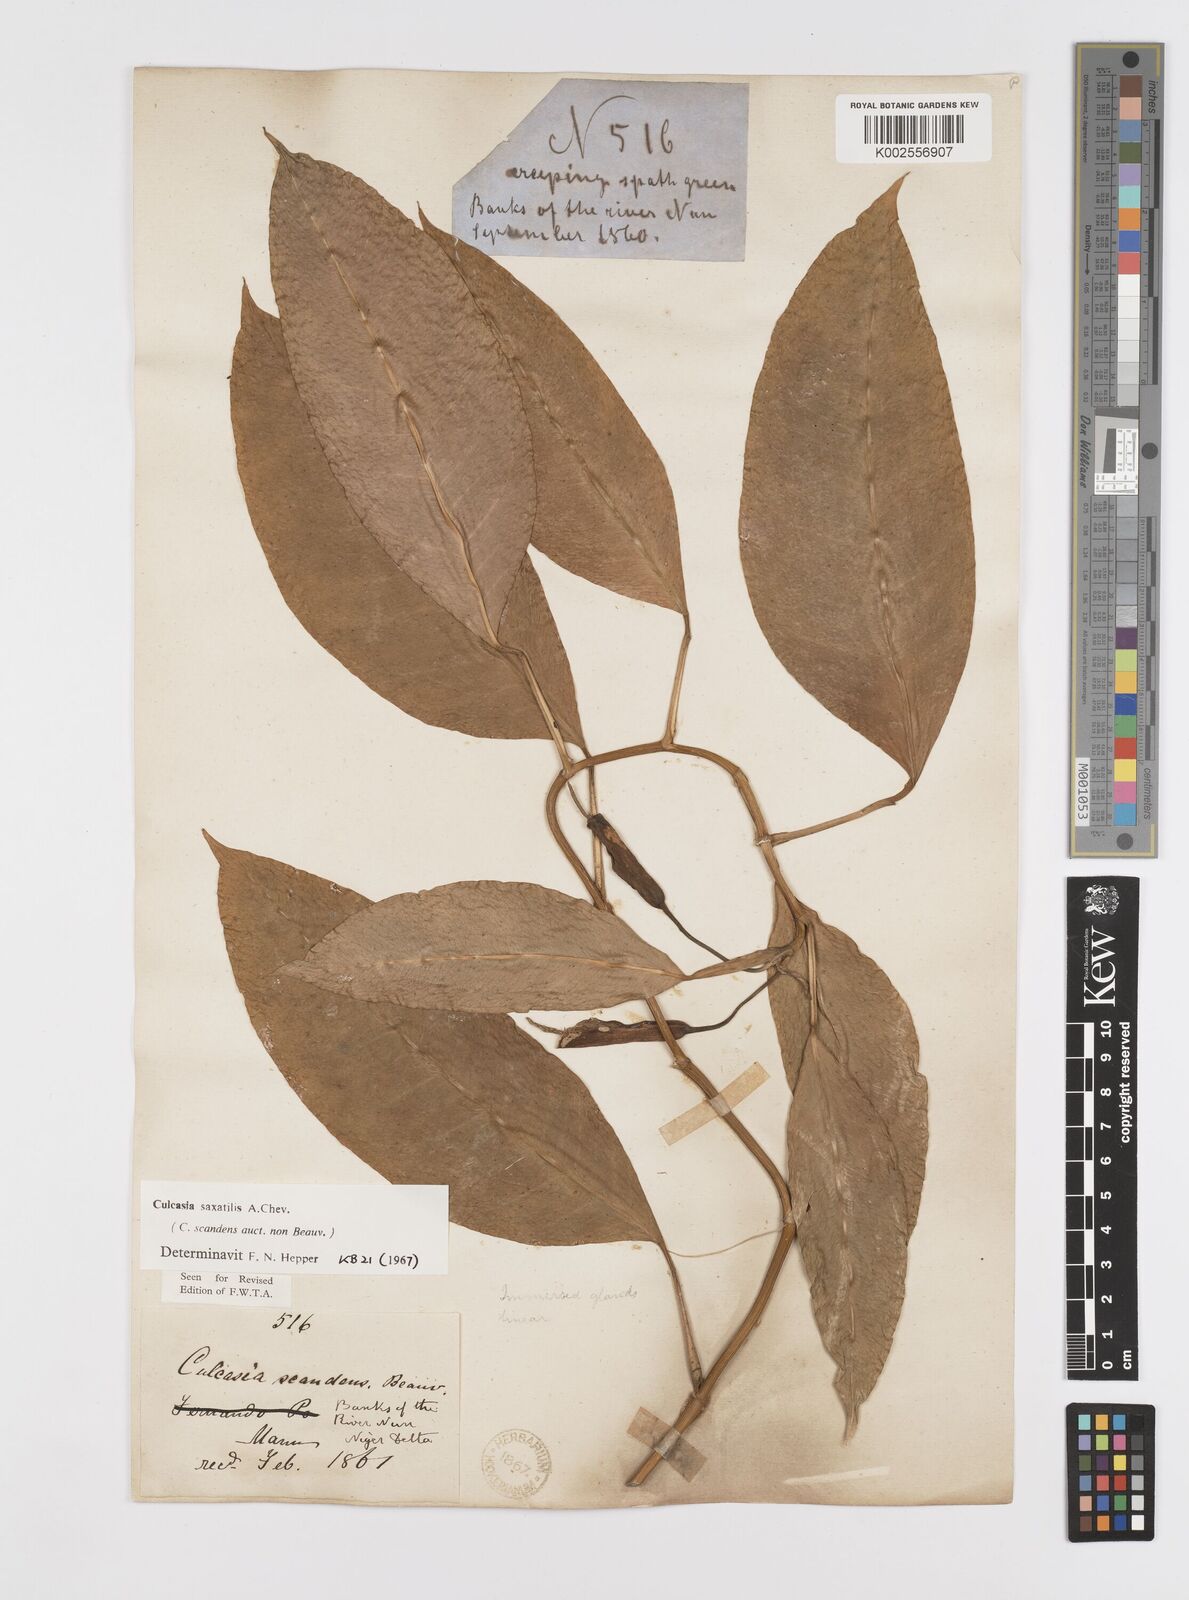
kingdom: Plantae
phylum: Tracheophyta
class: Liliopsida
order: Alismatales
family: Araceae
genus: Culcasia
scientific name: Culcasia scandens
